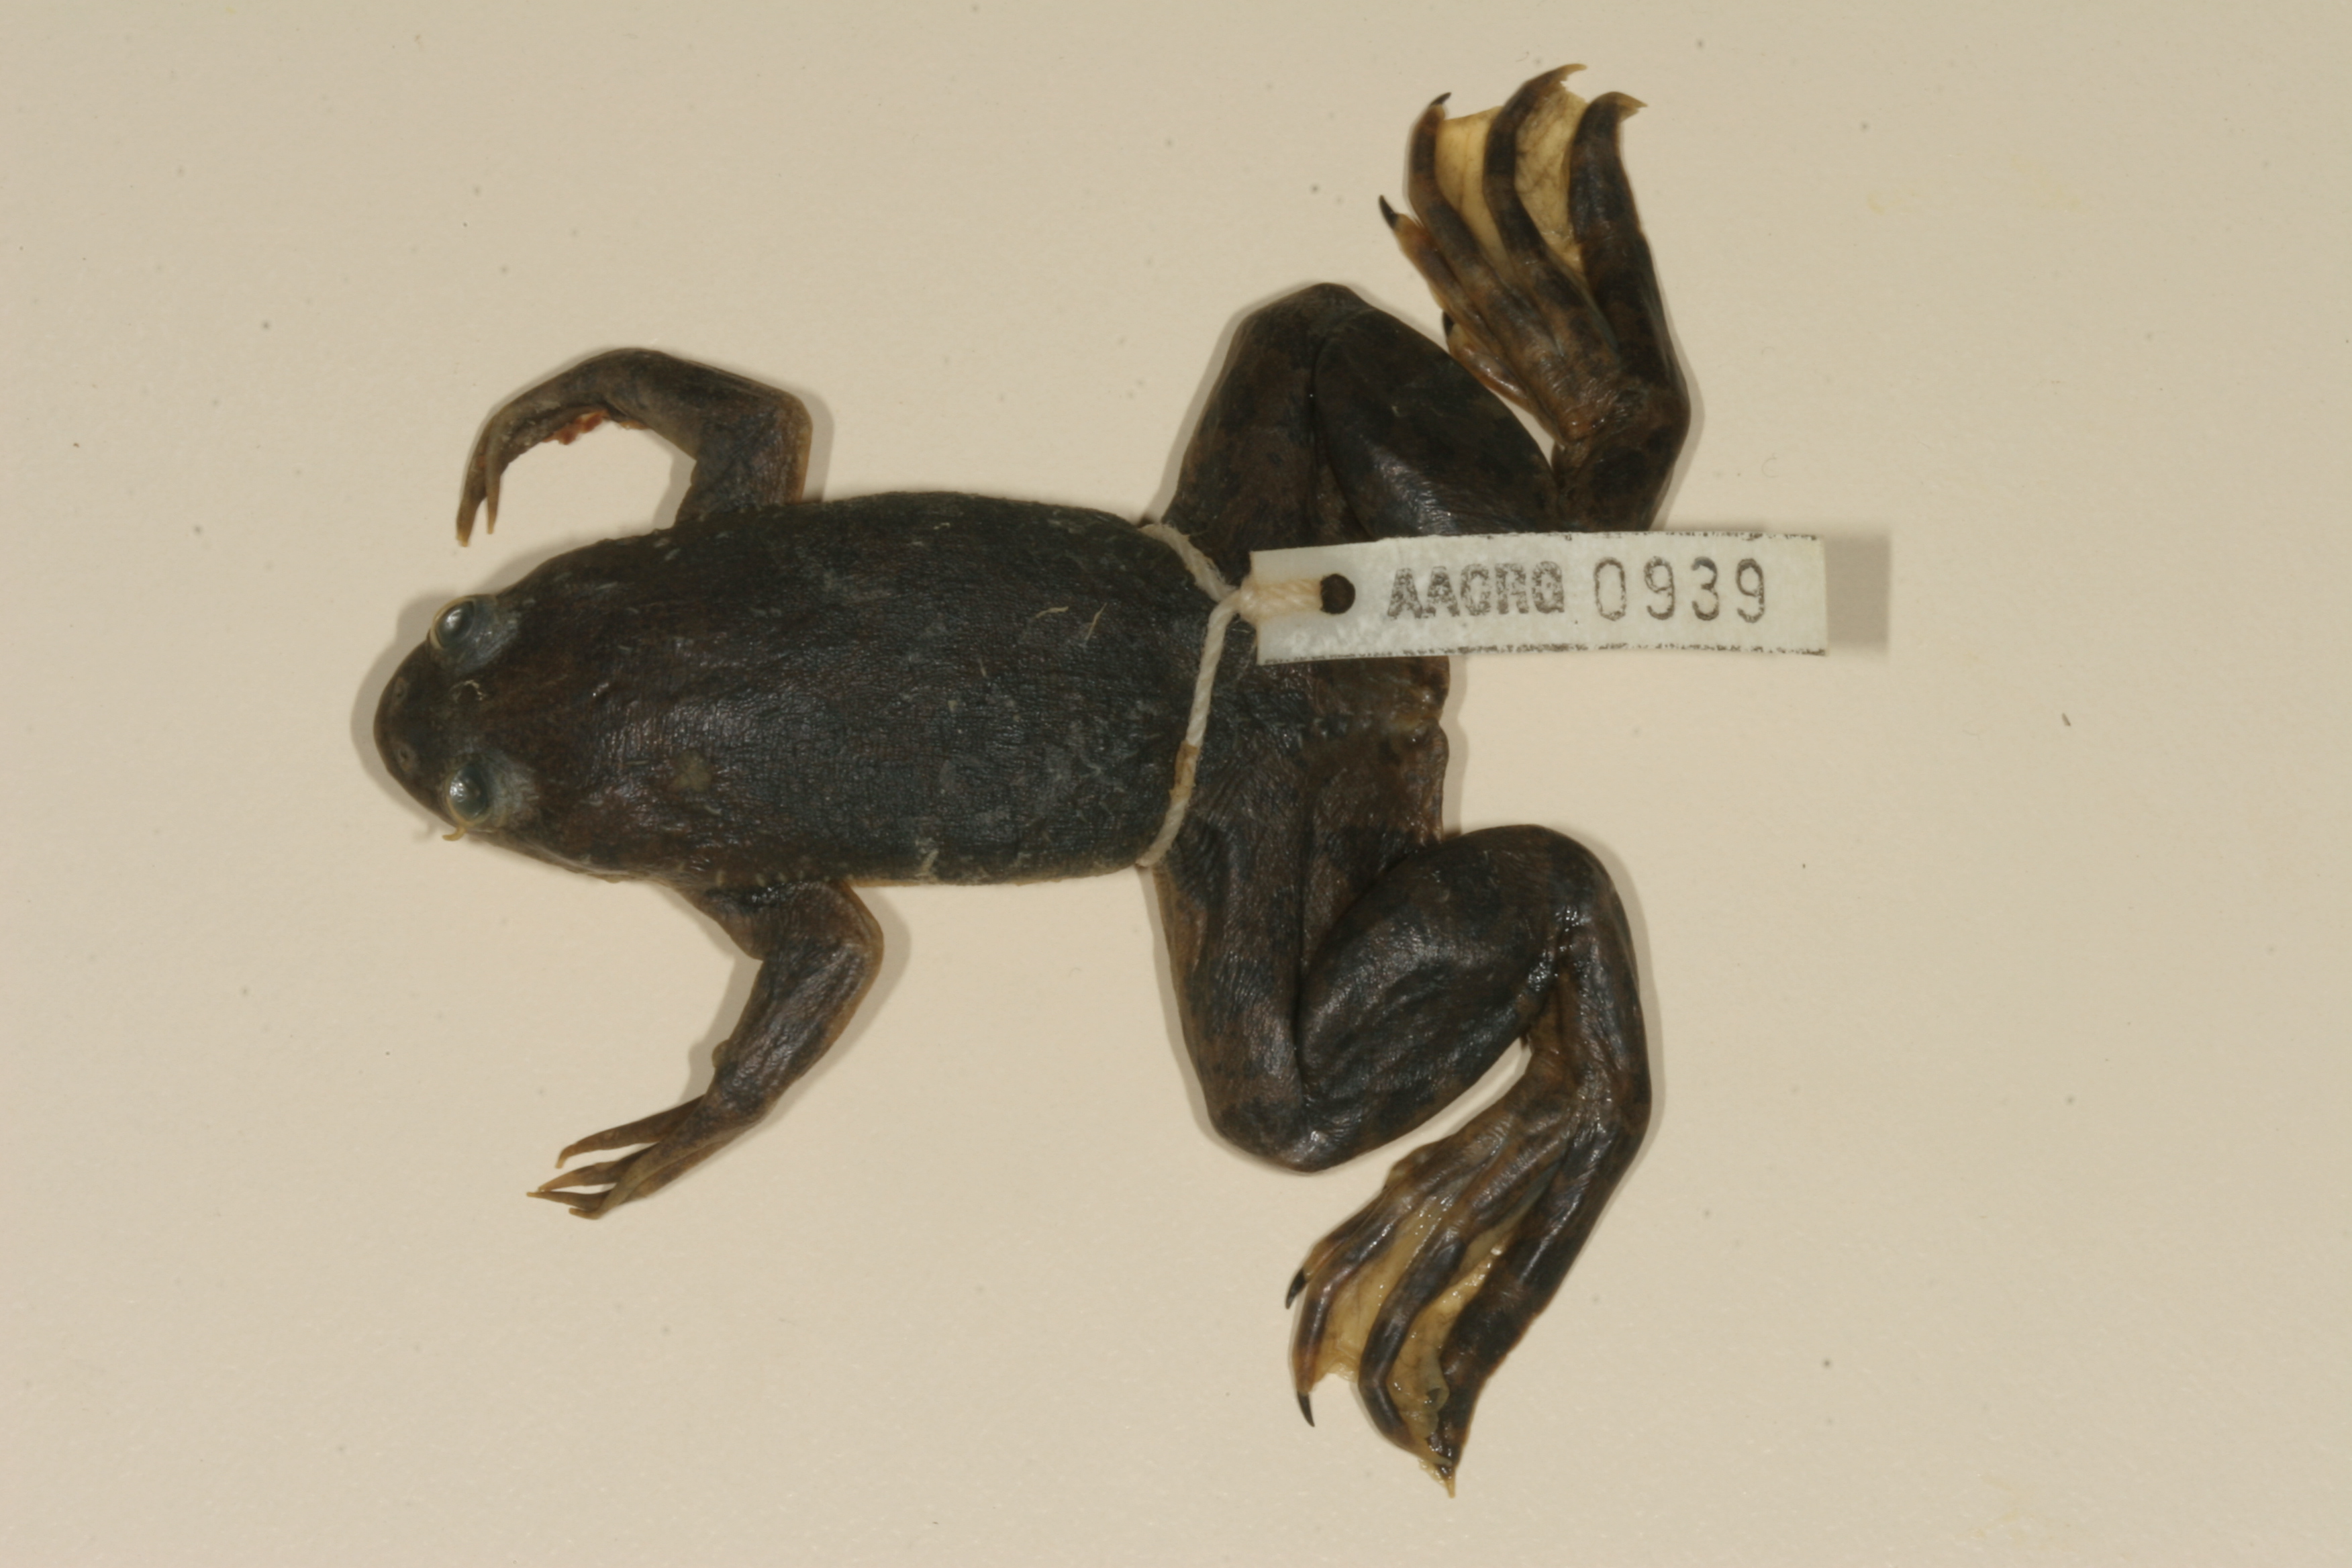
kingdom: Animalia
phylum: Chordata
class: Amphibia
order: Anura
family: Pipidae
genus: Xenopus
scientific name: Xenopus muelleri
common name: Muller's clawed frog
